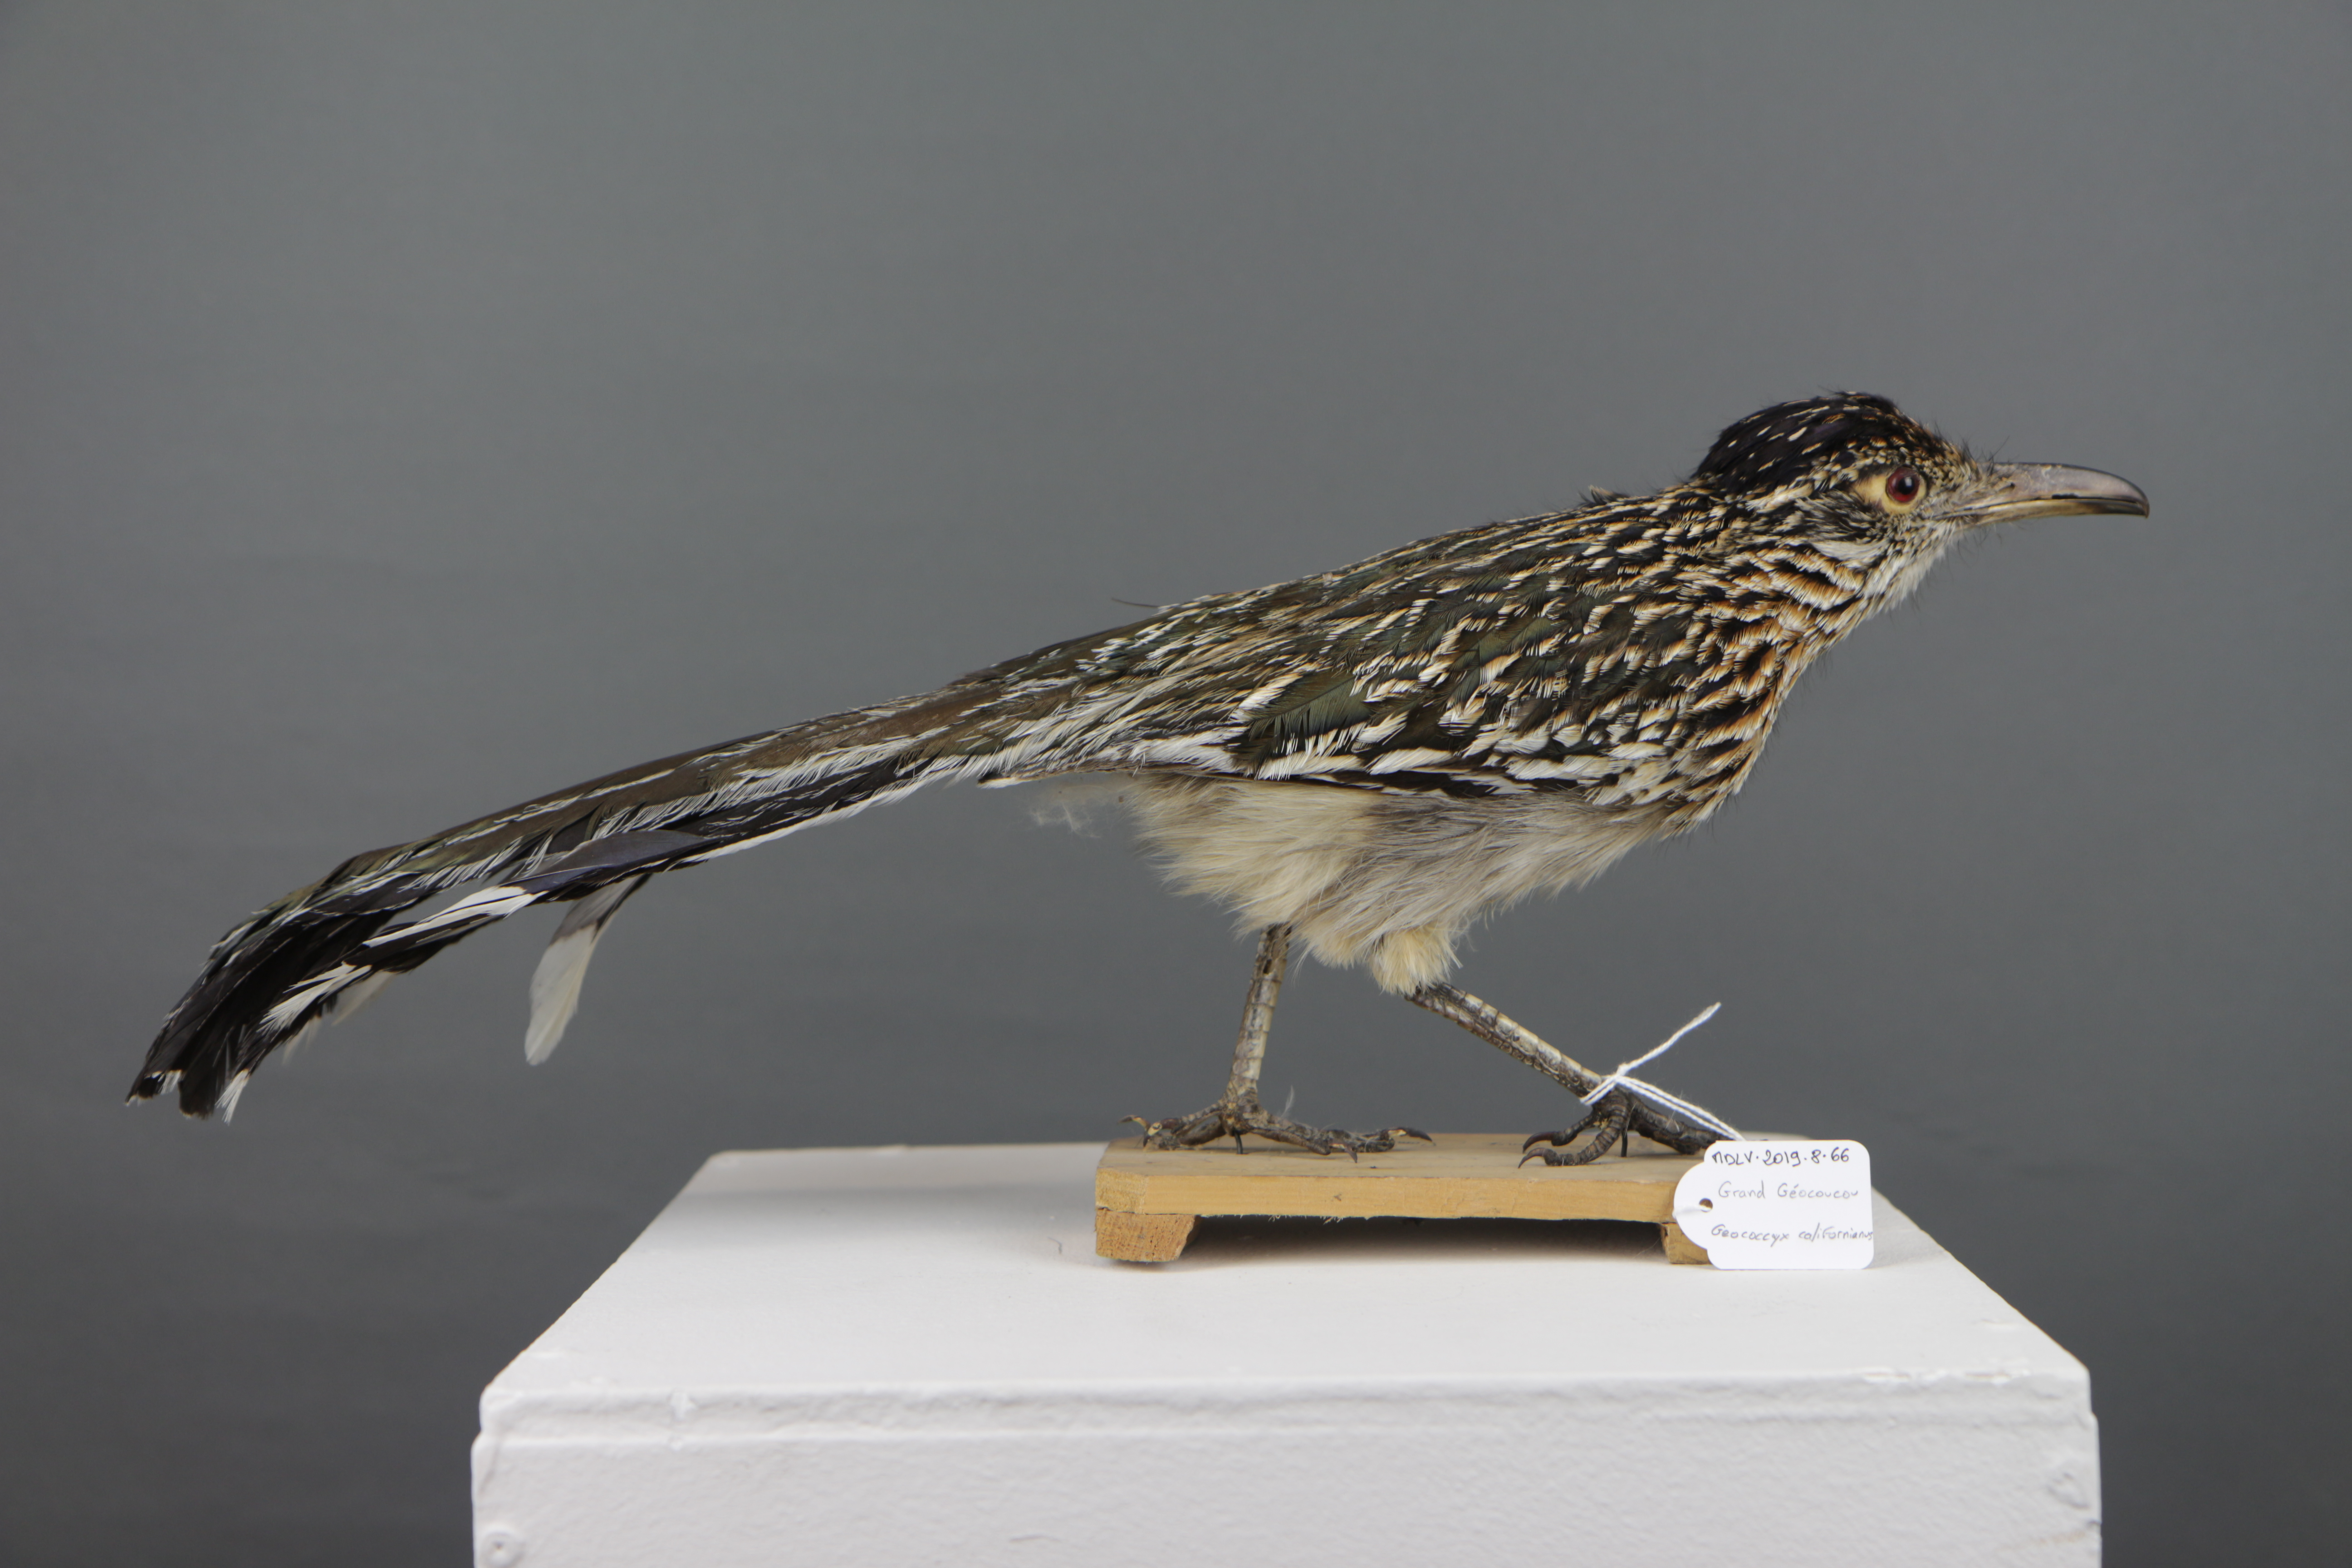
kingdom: Animalia
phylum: Chordata
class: Aves
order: Cuculiformes
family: Cuculidae
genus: Geococcyx
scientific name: Geococcyx californianus
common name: Greater roadrunner
